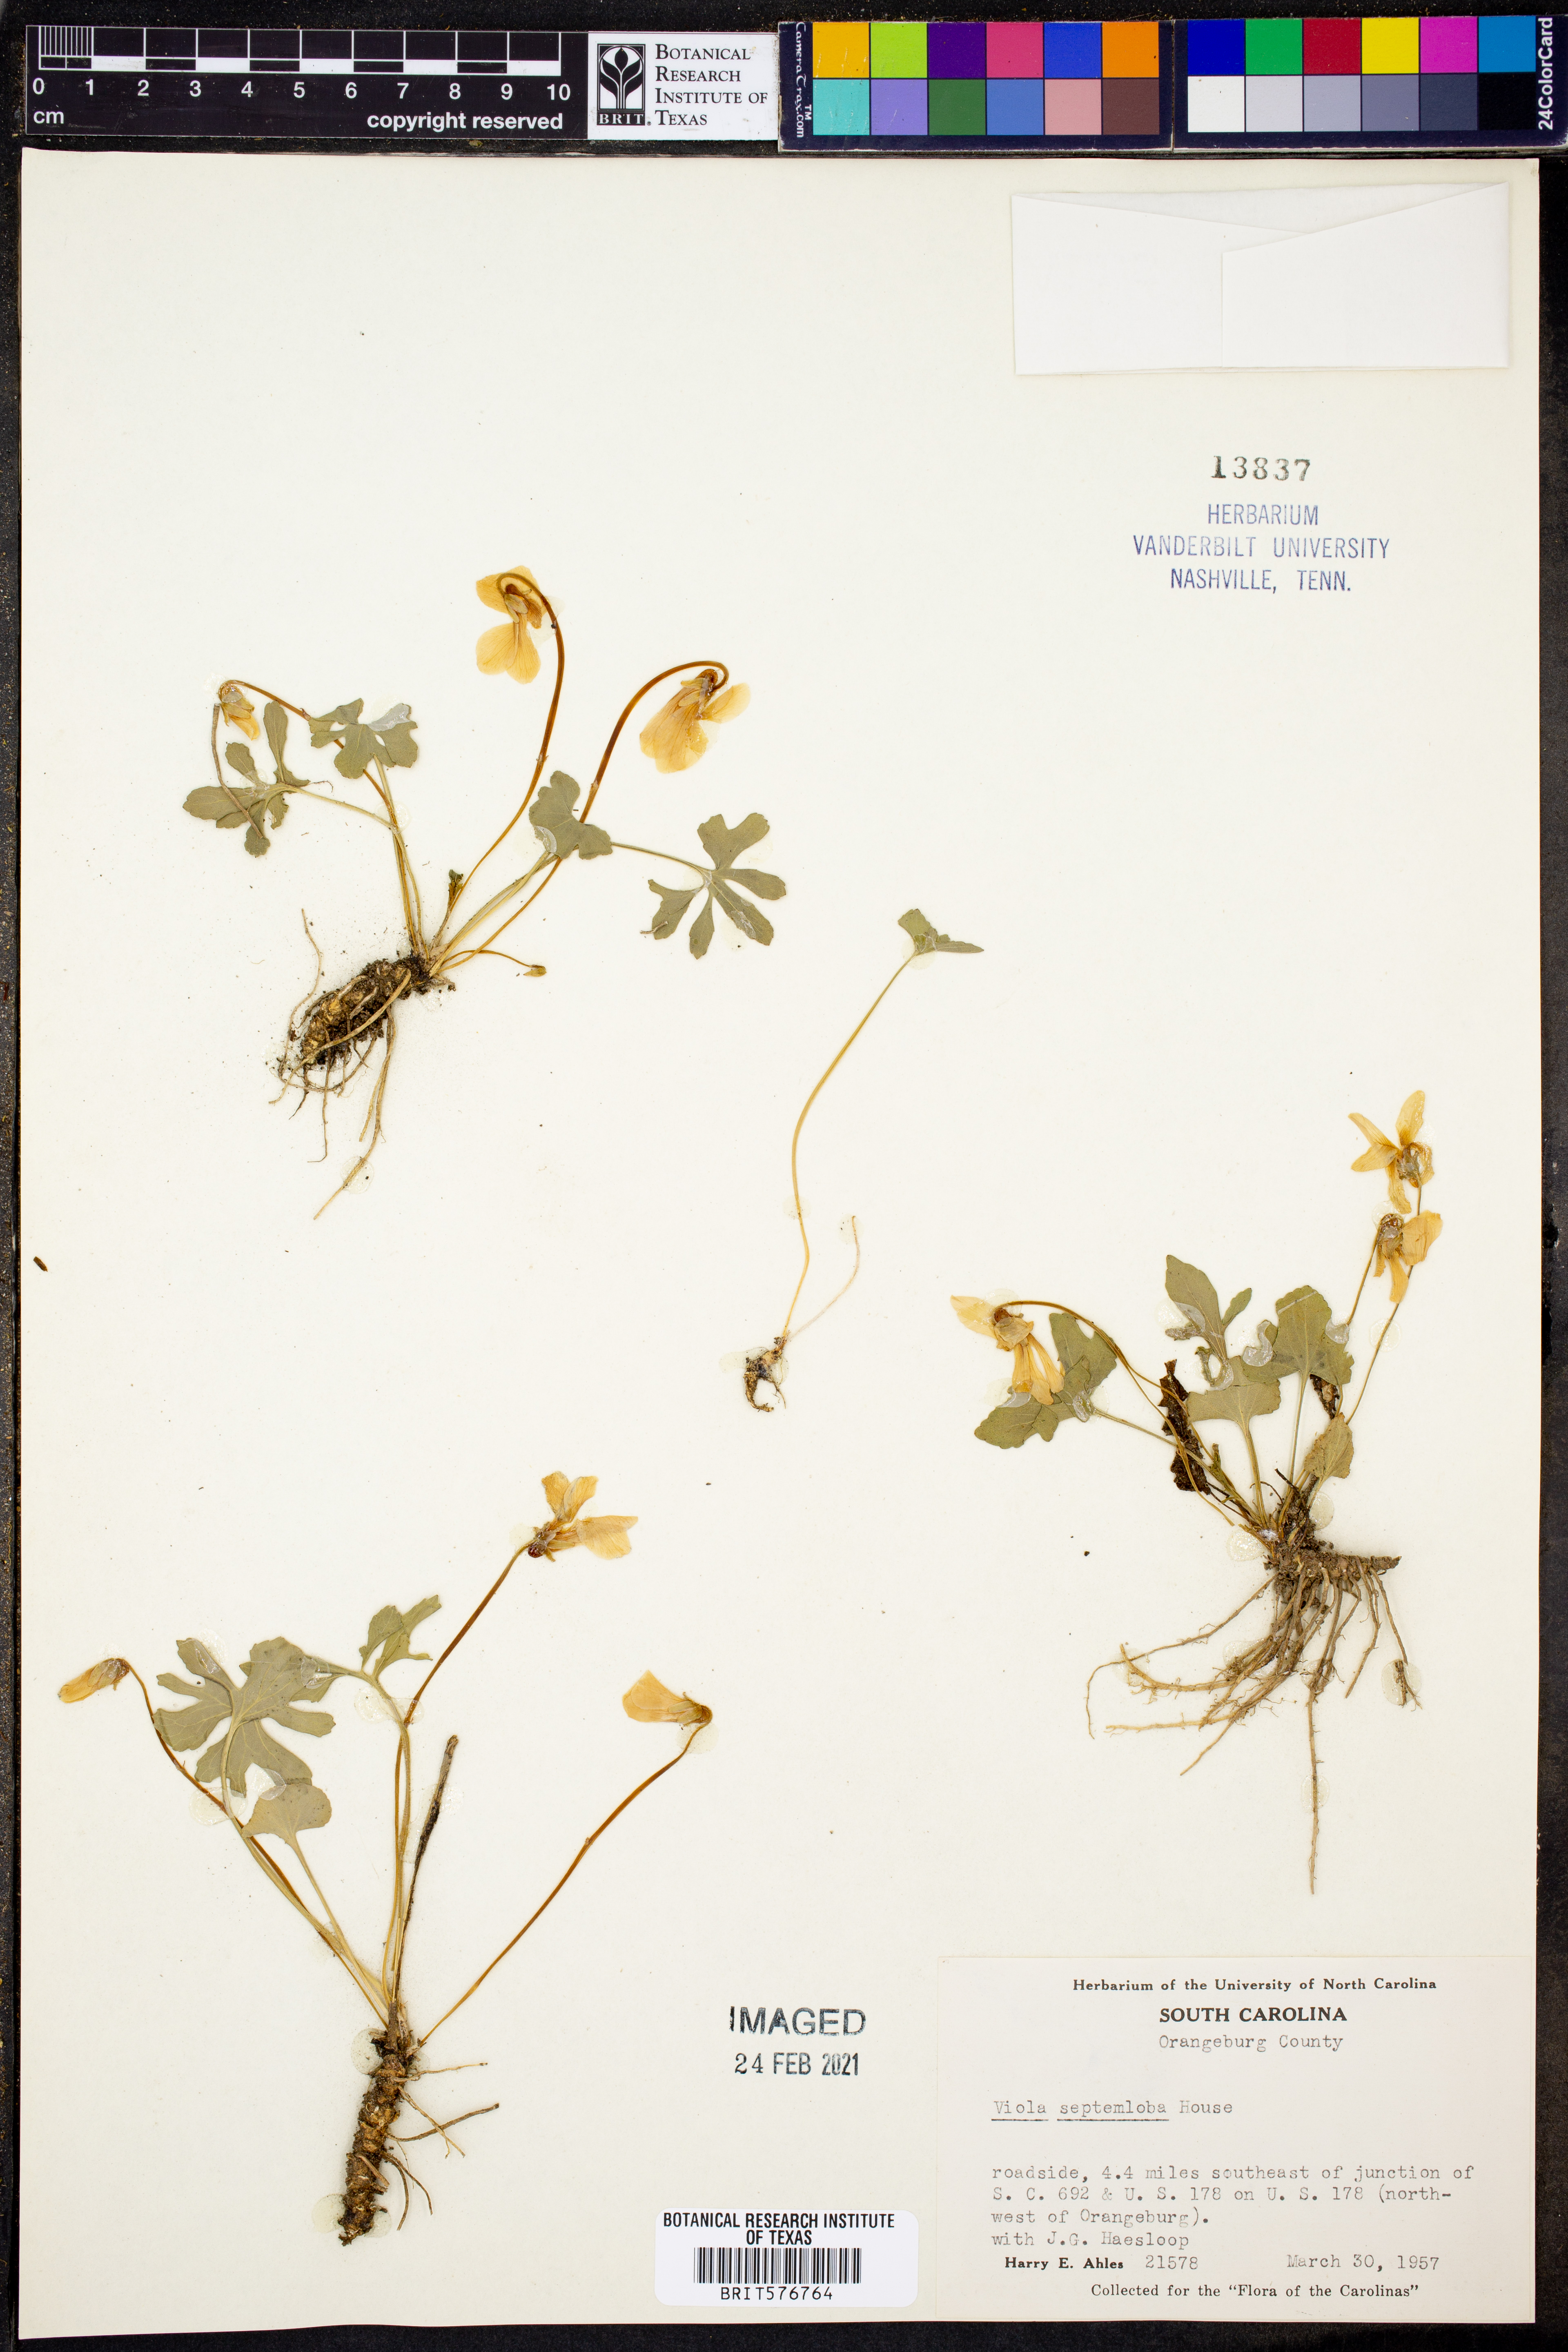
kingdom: Plantae
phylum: Tracheophyta
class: Magnoliopsida
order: Malpighiales
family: Violaceae
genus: Viola
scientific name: Viola septemloba
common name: Southern coast violet
